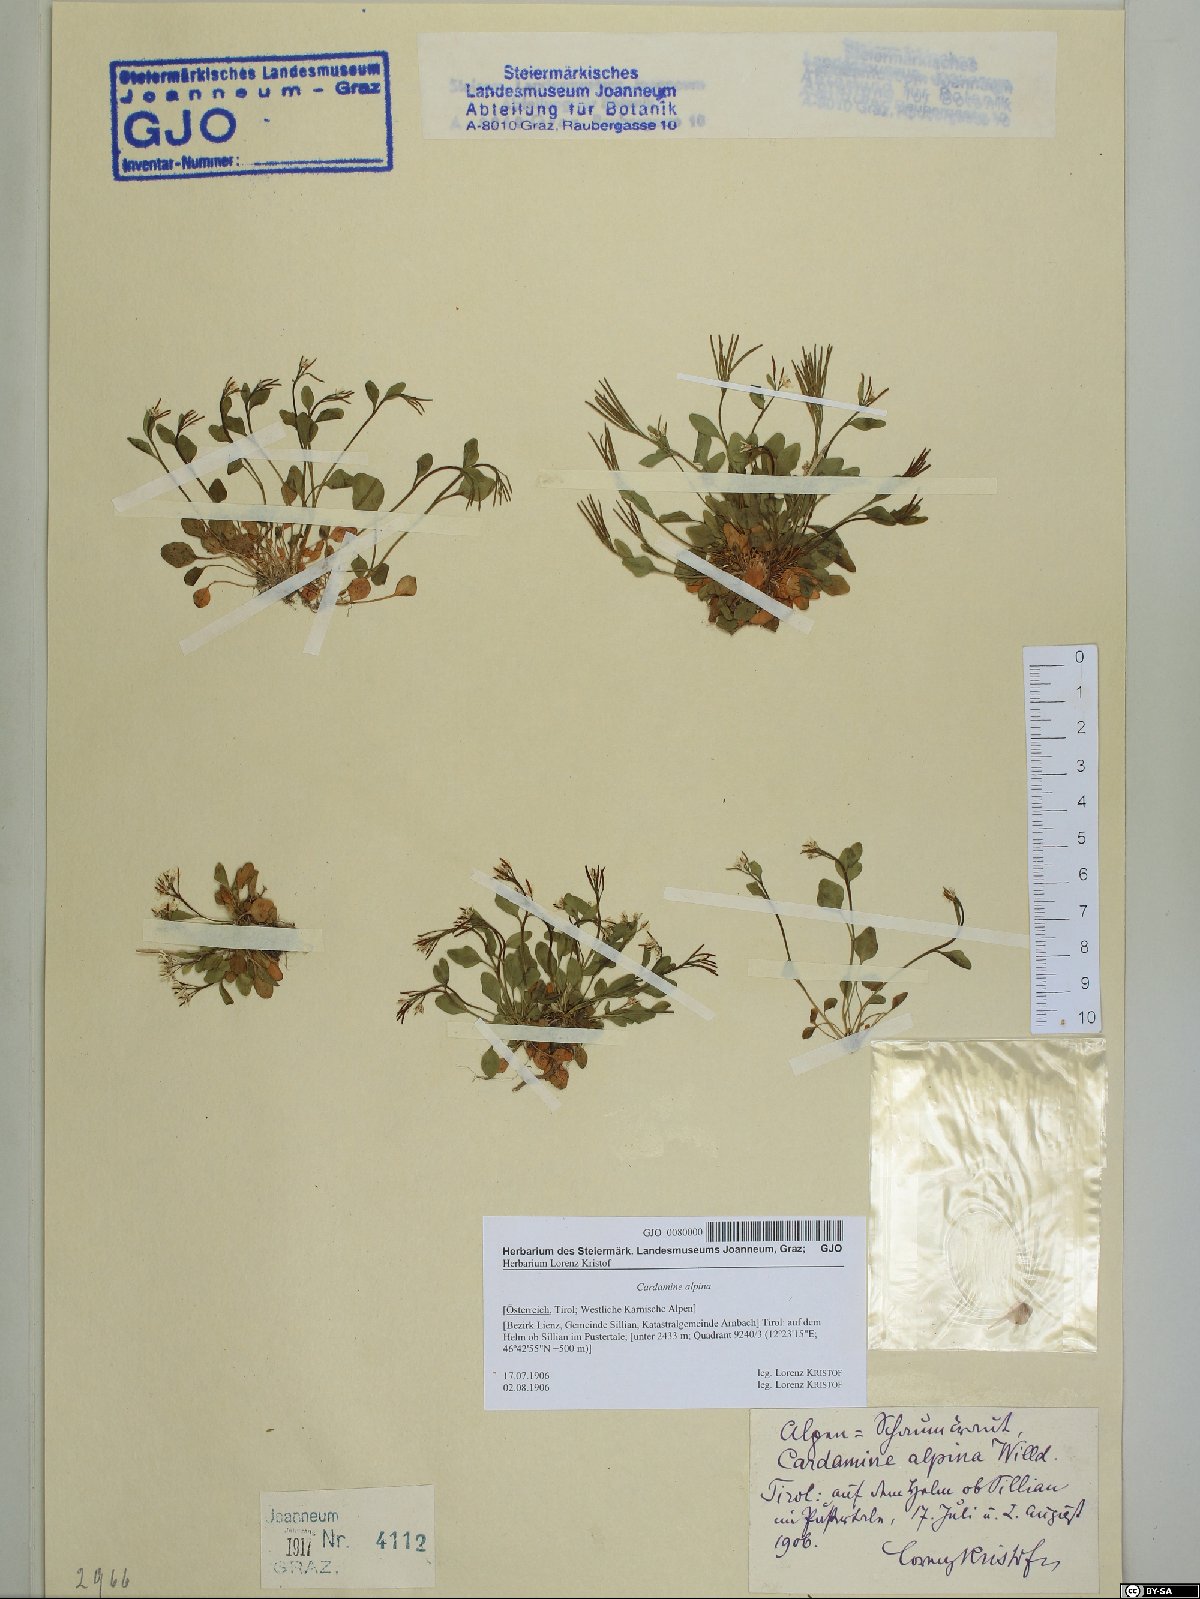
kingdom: Plantae
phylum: Tracheophyta
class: Magnoliopsida
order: Brassicales
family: Brassicaceae
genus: Cardamine
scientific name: Cardamine bellidifolia
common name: Alpine bittercress
